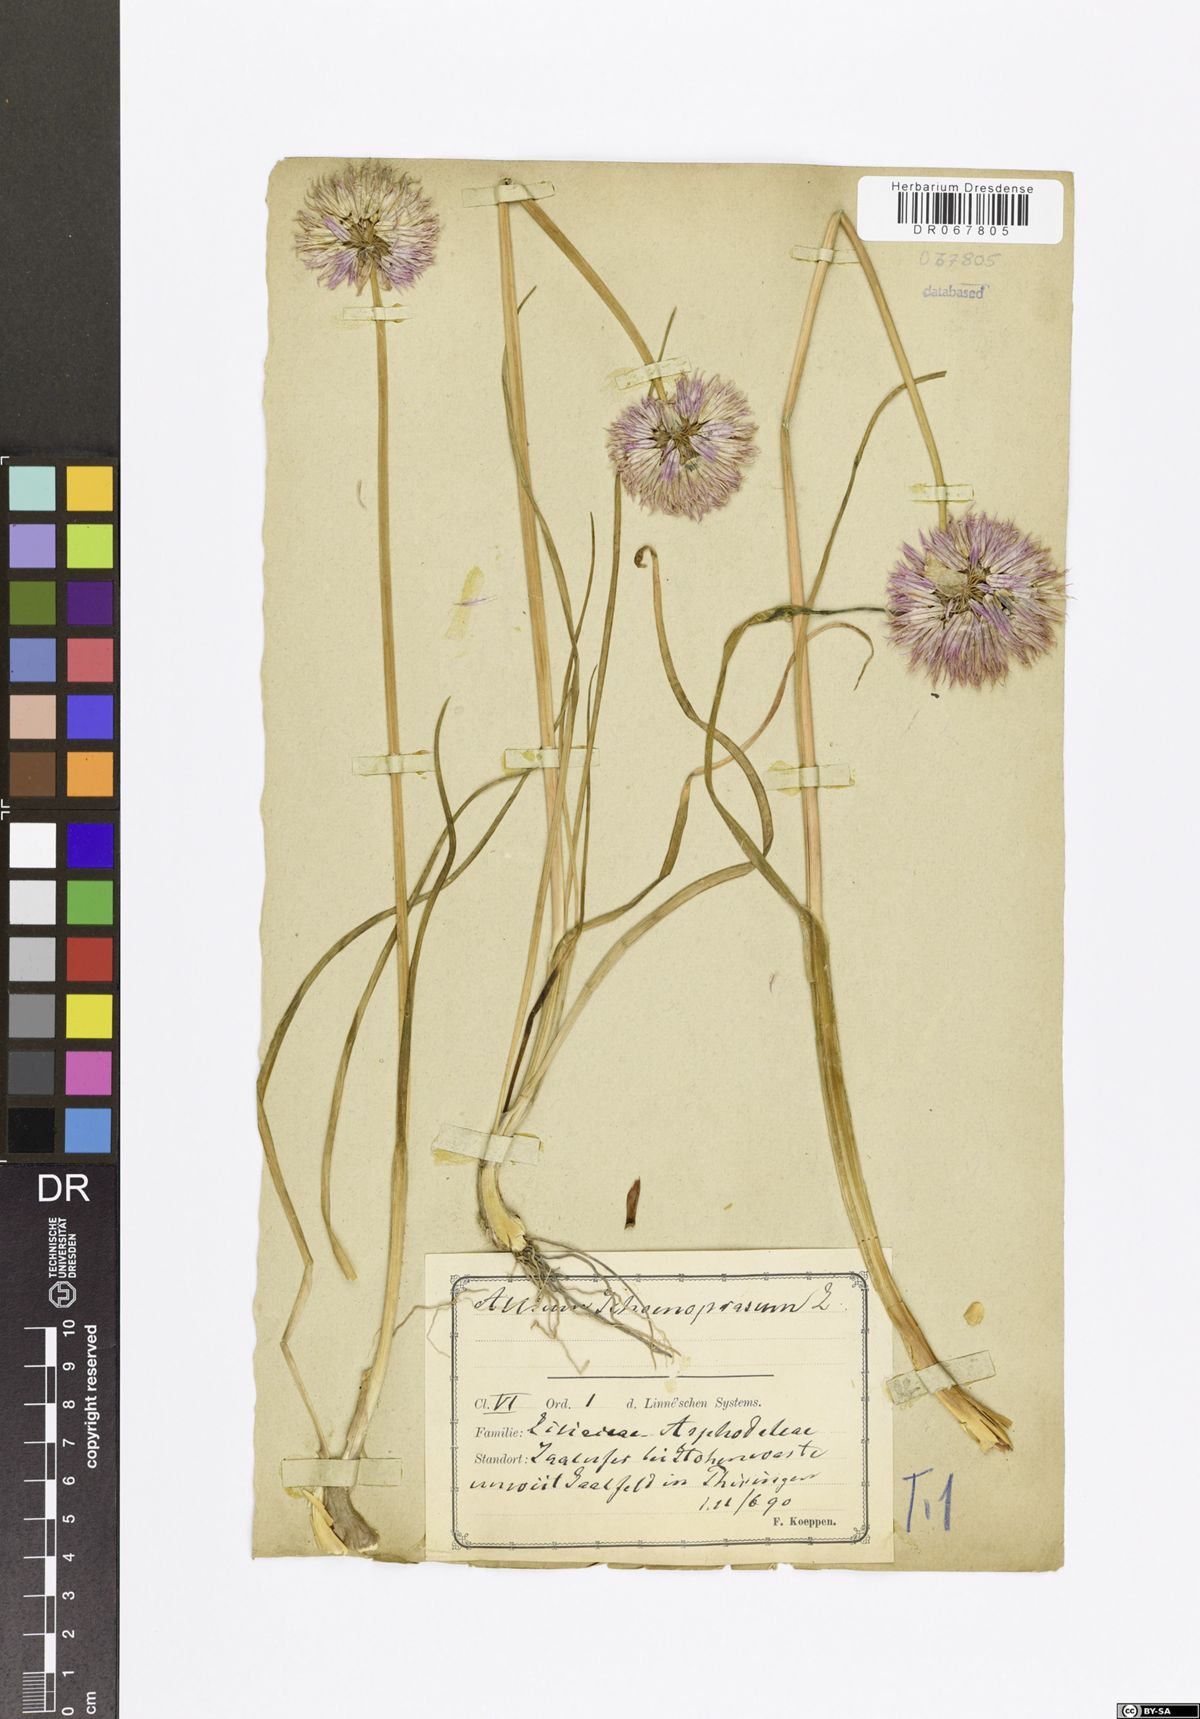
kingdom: Plantae
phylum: Tracheophyta
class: Liliopsida
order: Asparagales
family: Amaryllidaceae
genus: Allium
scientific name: Allium schoenoprasum
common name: Chives
